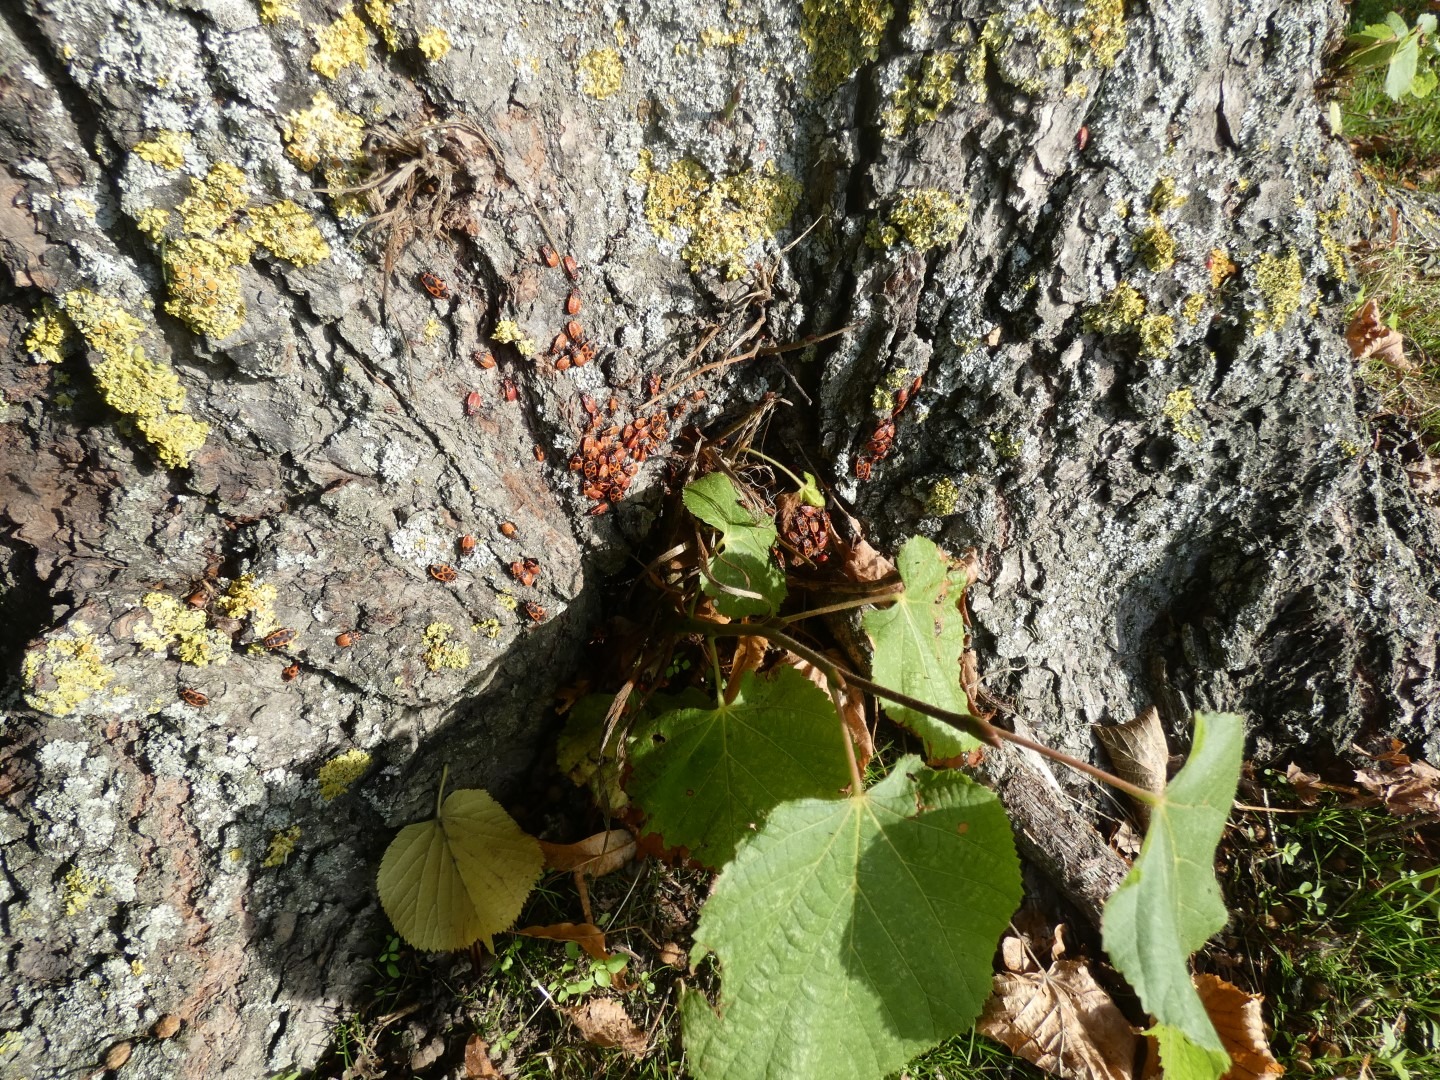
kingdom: Animalia
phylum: Arthropoda
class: Insecta
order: Hemiptera
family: Pyrrhocoridae
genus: Pyrrhocoris
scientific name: Pyrrhocoris apterus
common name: Ildtæge
